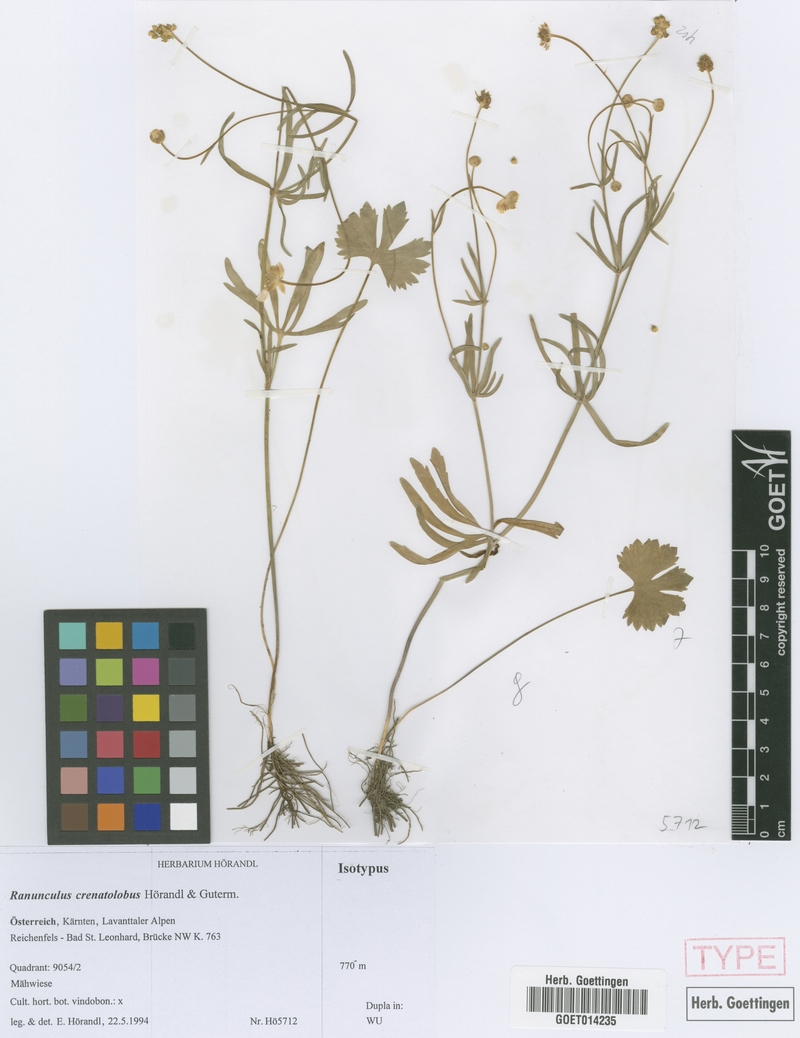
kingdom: Plantae
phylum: Tracheophyta
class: Magnoliopsida
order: Ranunculales
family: Ranunculaceae
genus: Ranunculus
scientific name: Ranunculus crenatolobus
